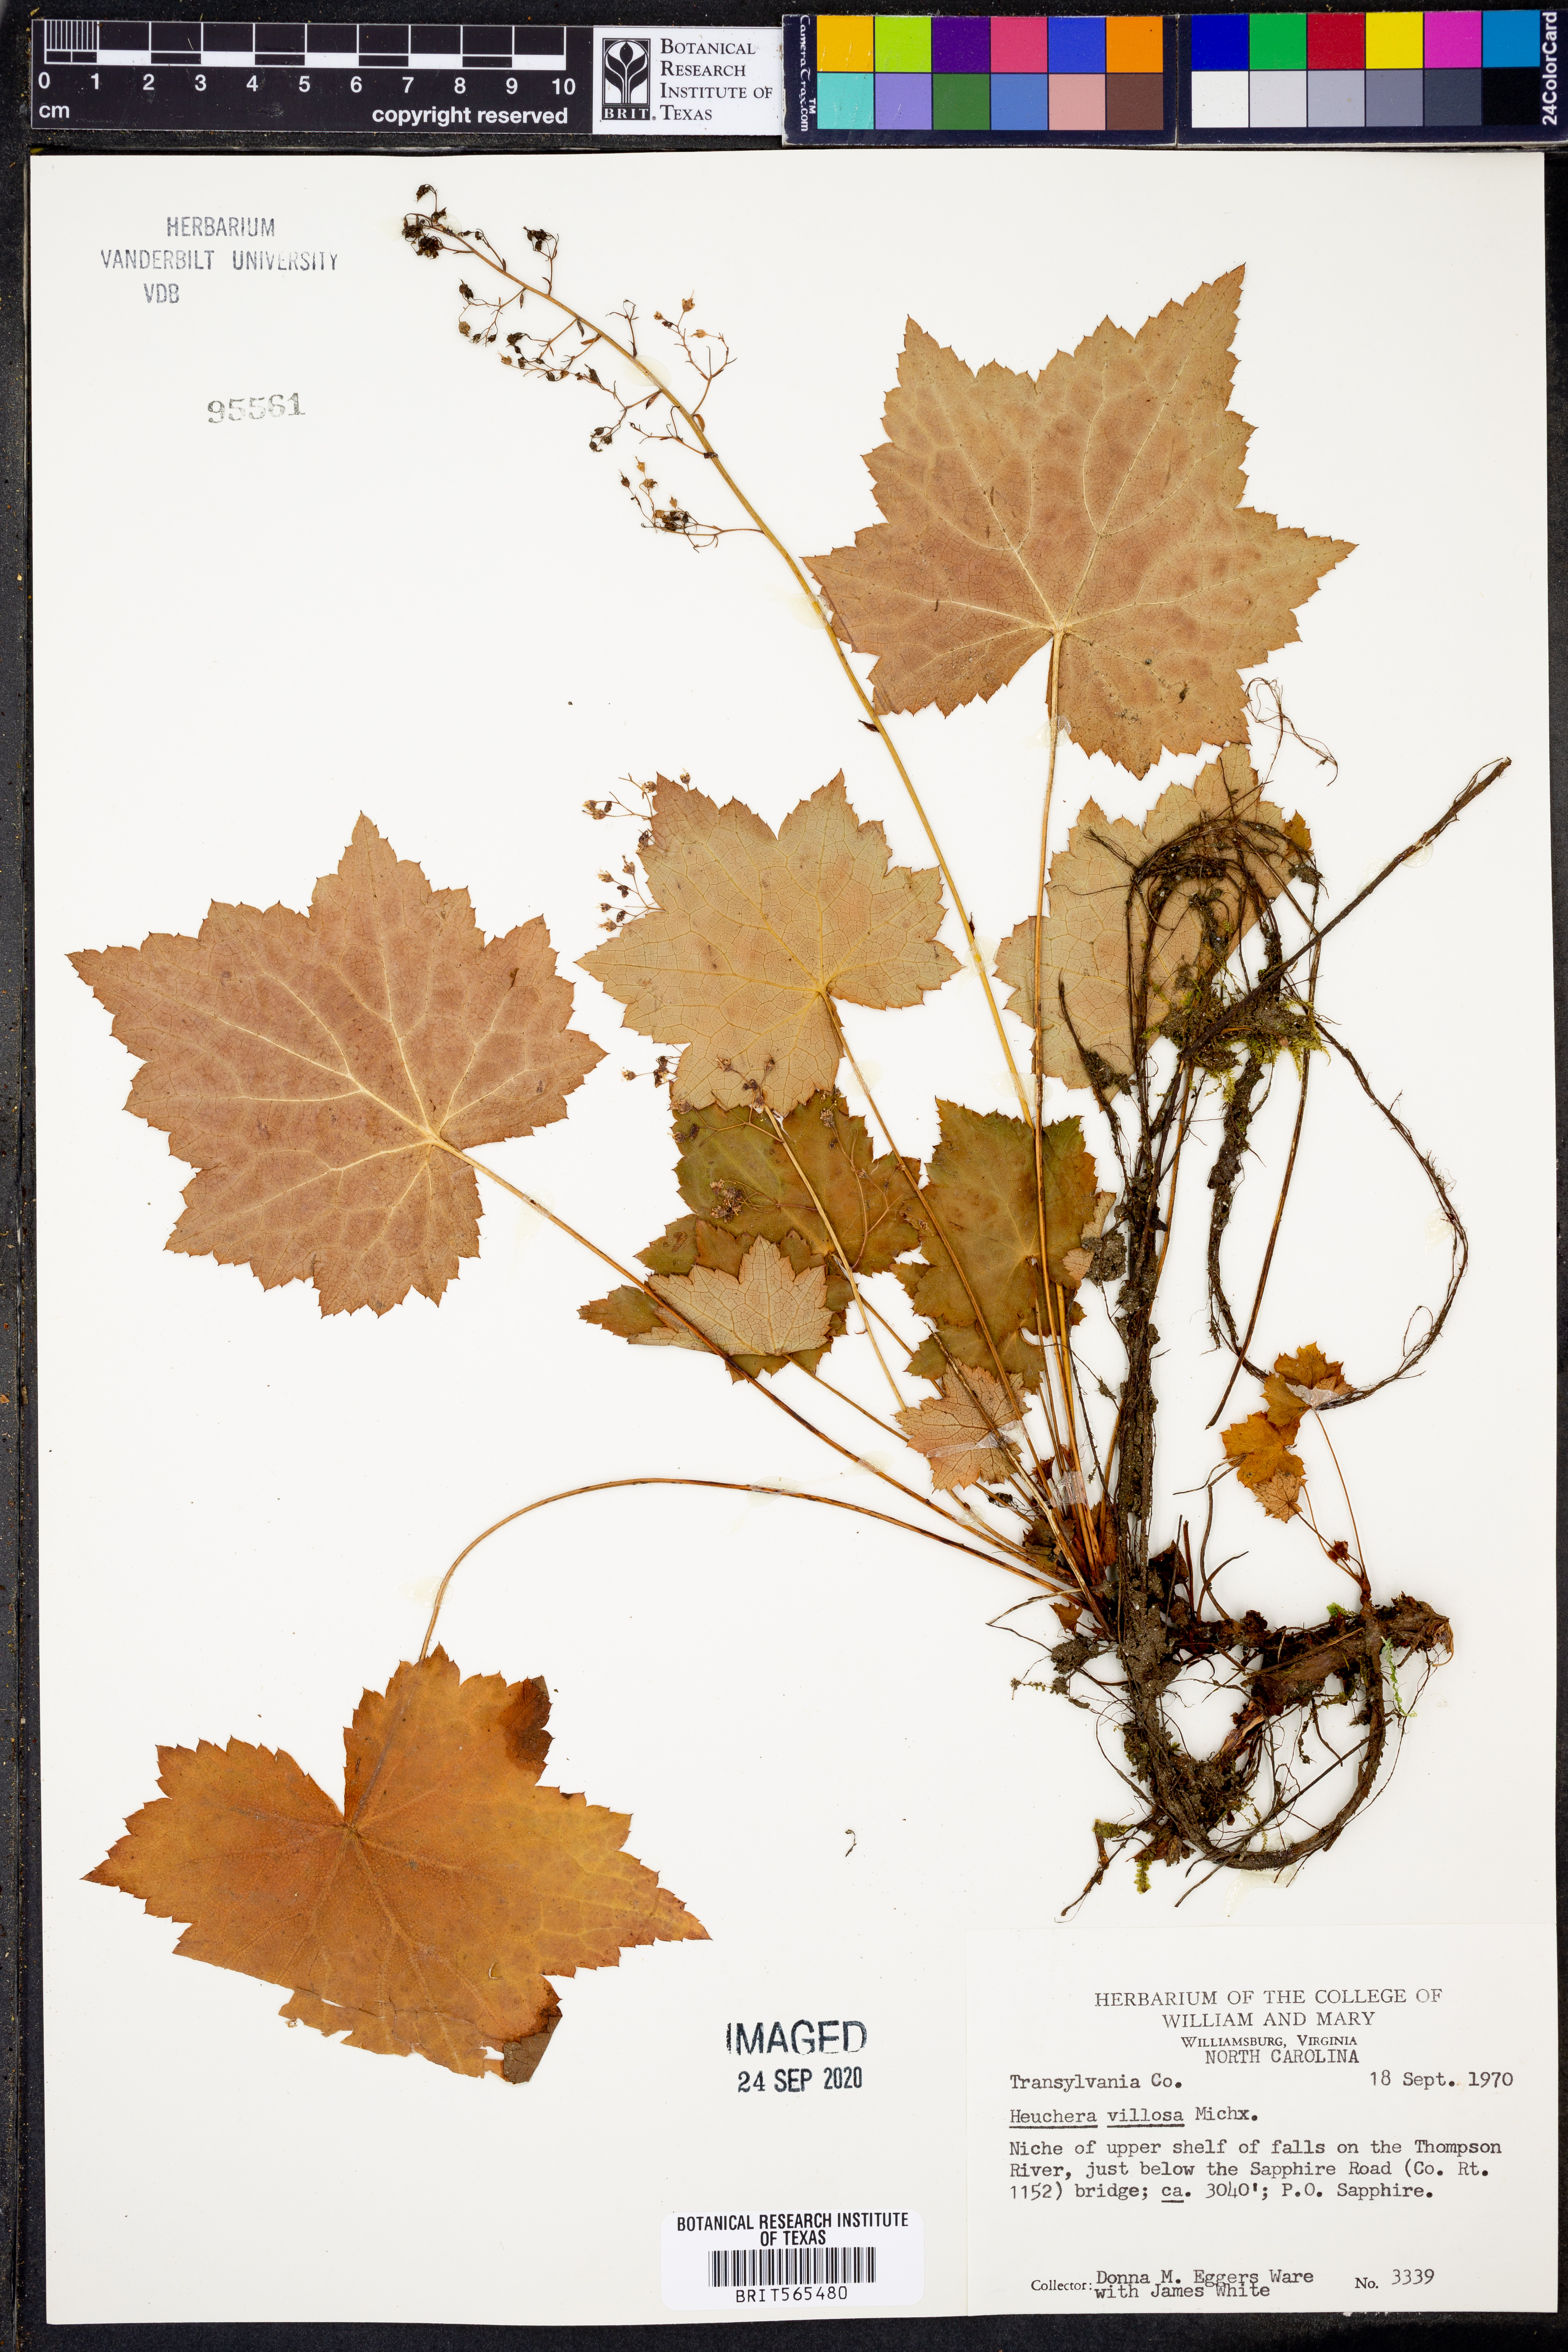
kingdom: Plantae
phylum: Tracheophyta
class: Magnoliopsida
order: Saxifragales
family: Saxifragaceae
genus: Heuchera
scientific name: Heuchera villosa
